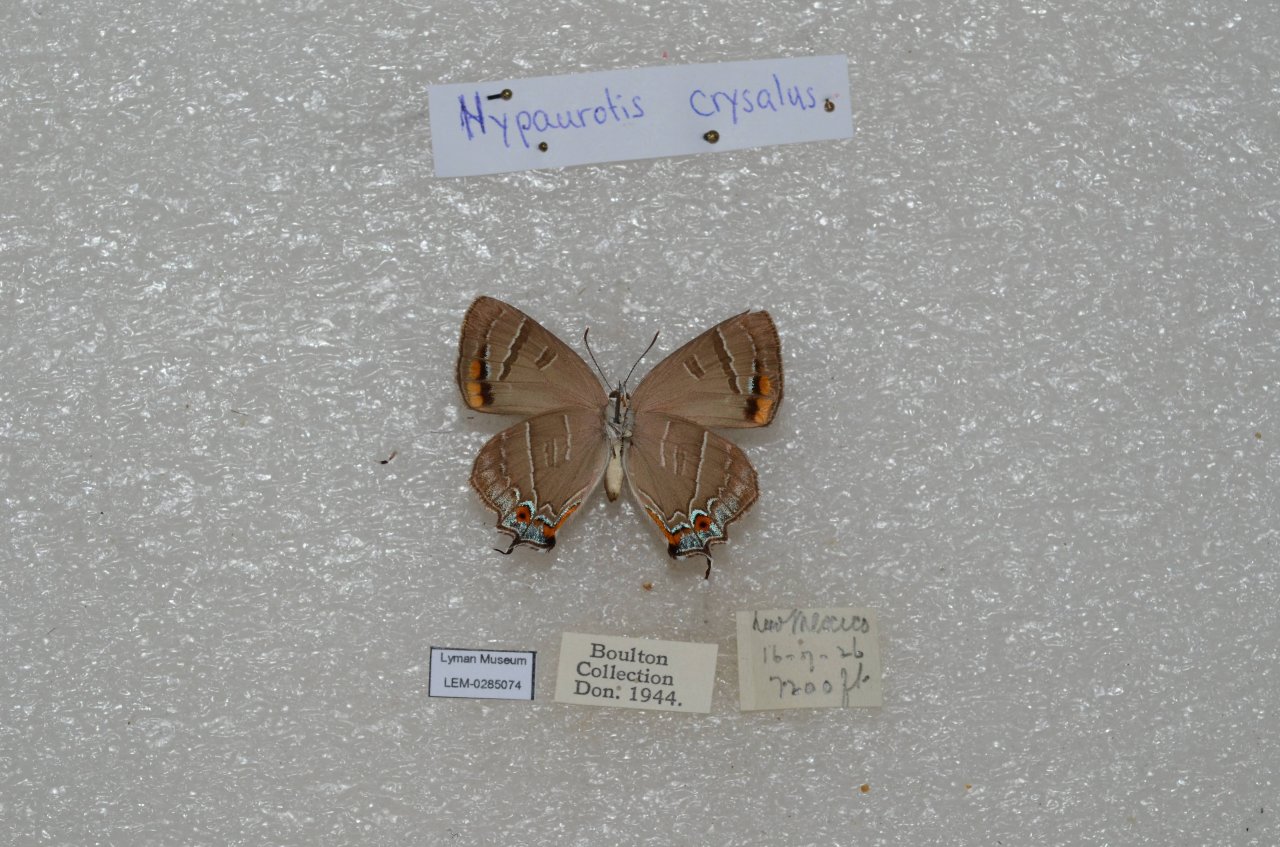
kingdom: Animalia
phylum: Arthropoda
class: Insecta
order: Lepidoptera
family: Lycaenidae
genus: Hypaurotis
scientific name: Hypaurotis crysalus
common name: Colorado Hairstreak
